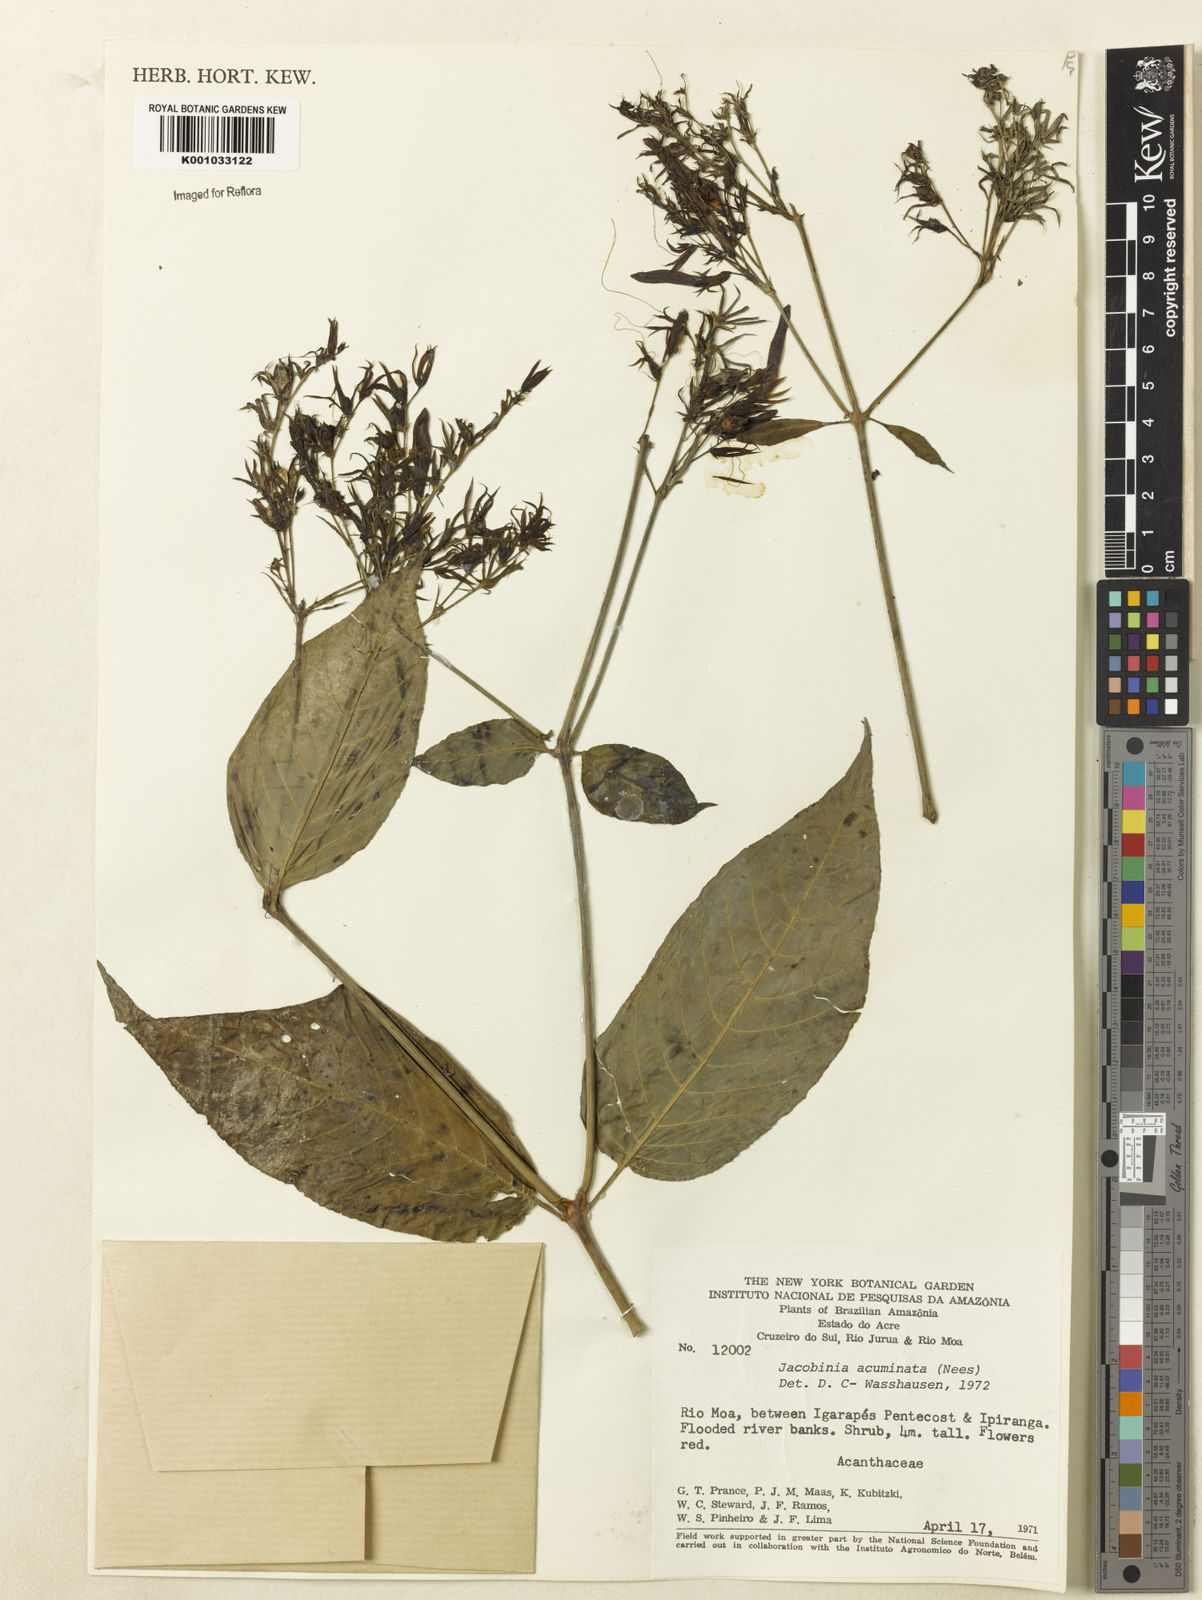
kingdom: Plantae
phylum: Tracheophyta
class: Magnoliopsida
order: Lamiales
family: Acanthaceae
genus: Dianthera
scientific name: Dianthera comata
